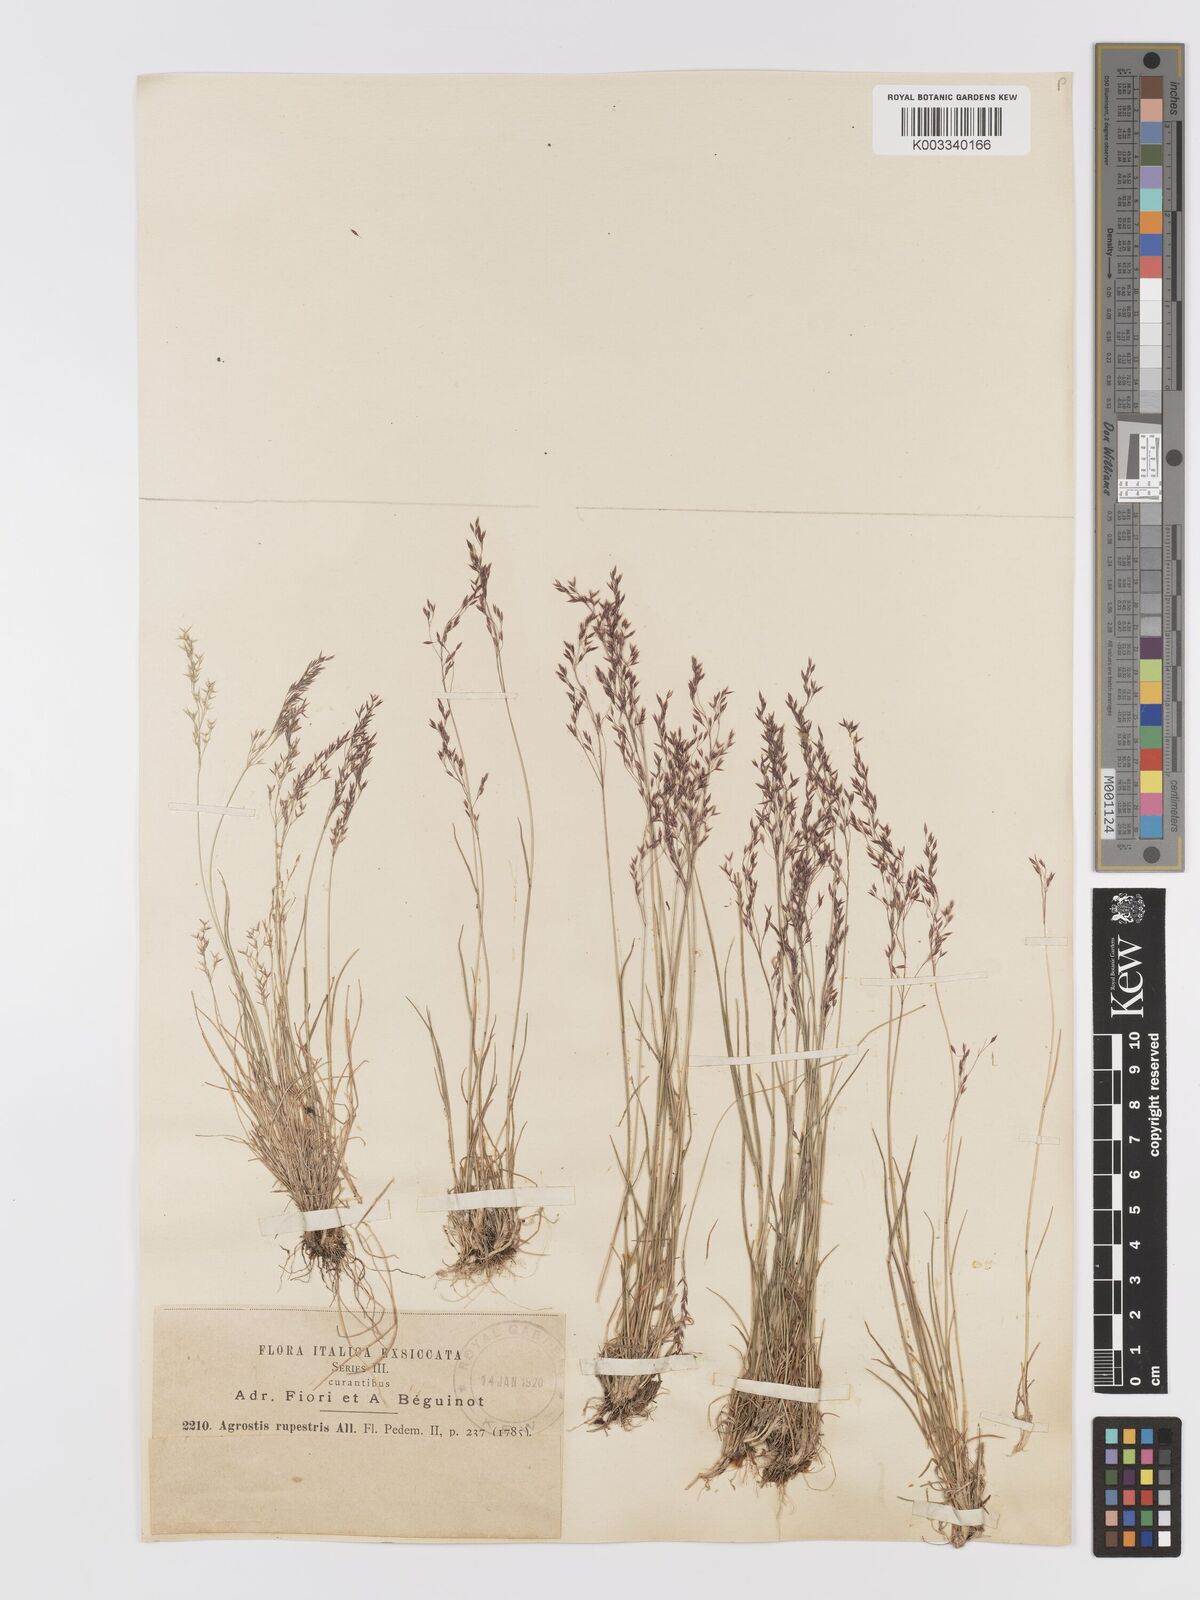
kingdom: Plantae
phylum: Tracheophyta
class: Liliopsida
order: Poales
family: Poaceae
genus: Agrostis
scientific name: Agrostis rupestris
